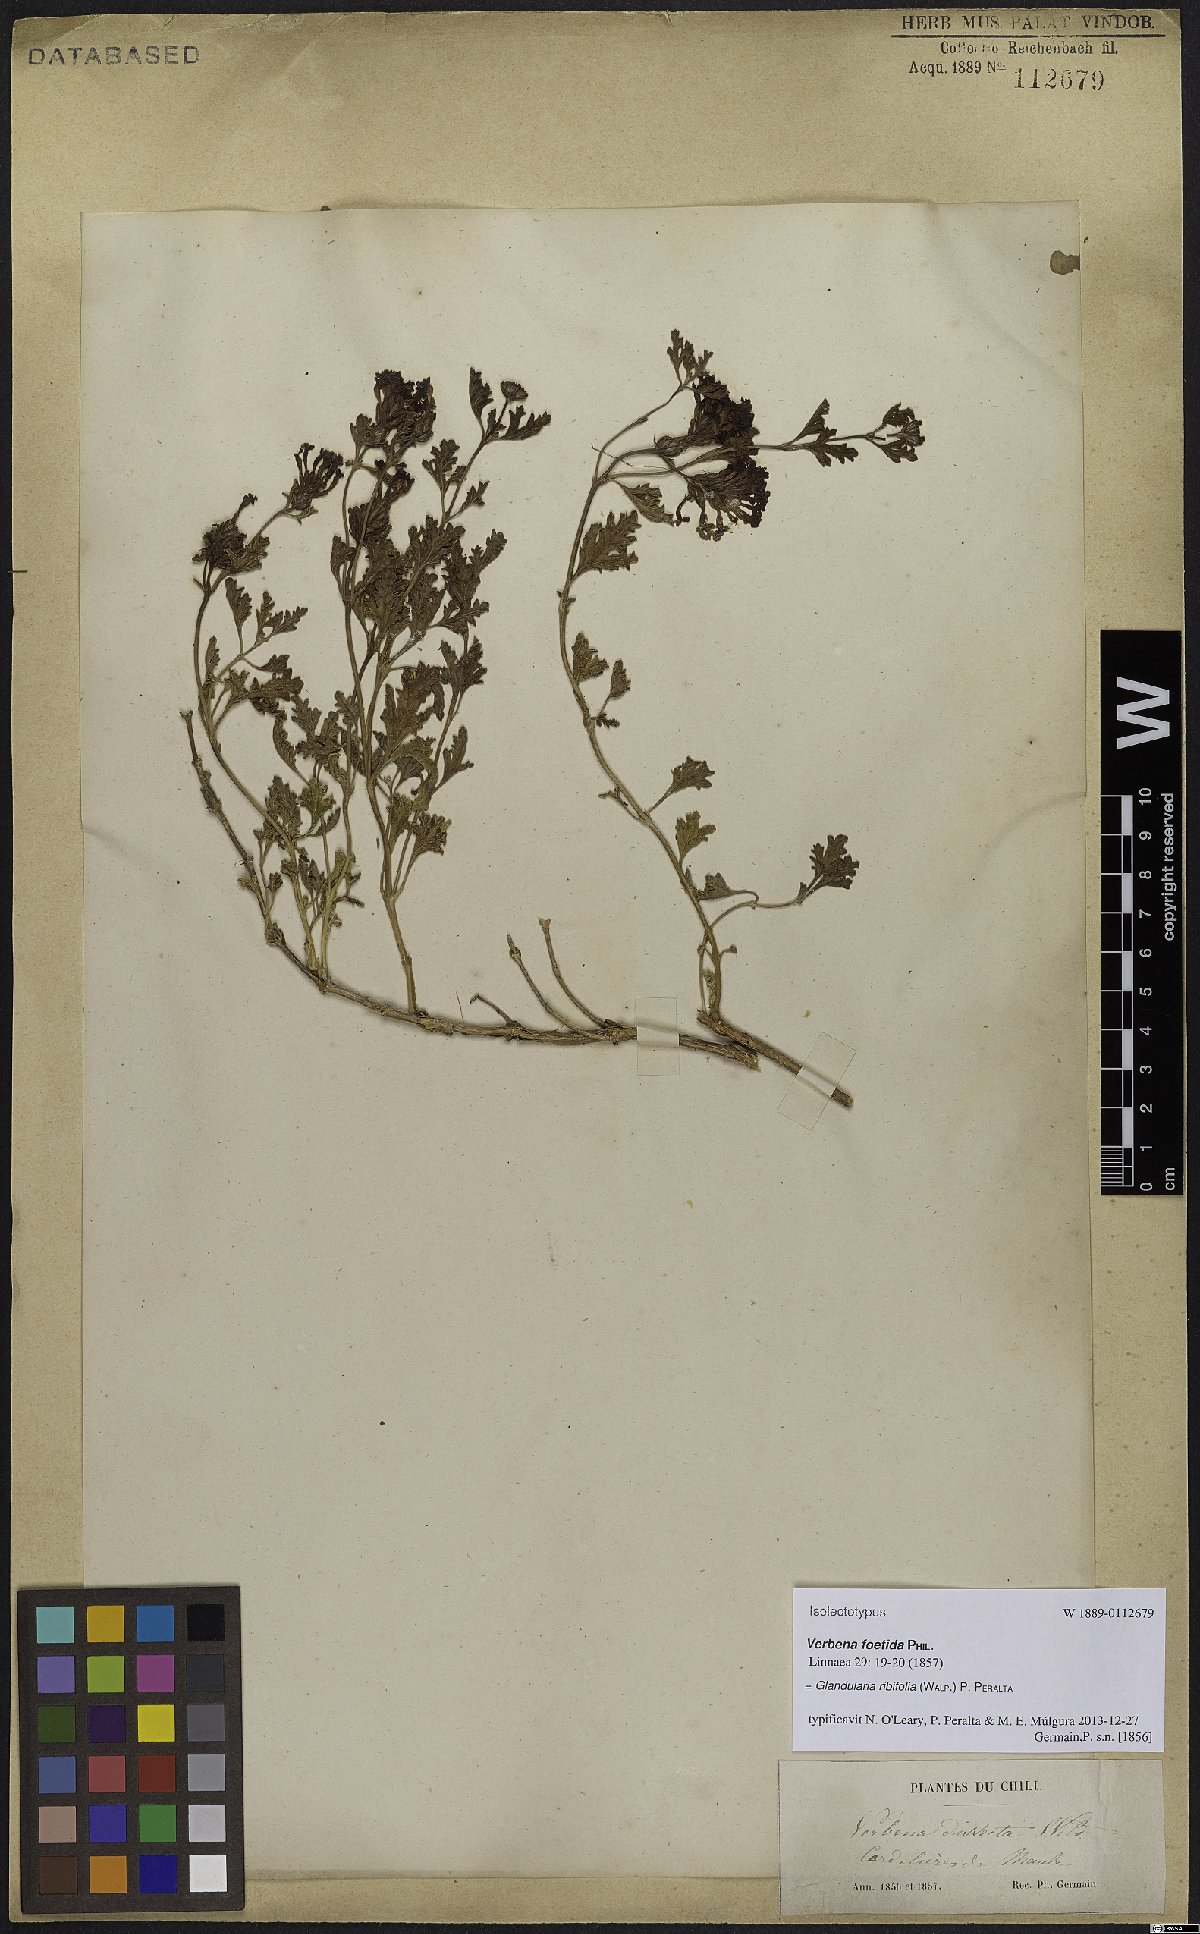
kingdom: Plantae
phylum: Tracheophyta
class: Magnoliopsida
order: Lamiales
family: Verbenaceae
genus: Verbena
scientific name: Verbena ribifolia
